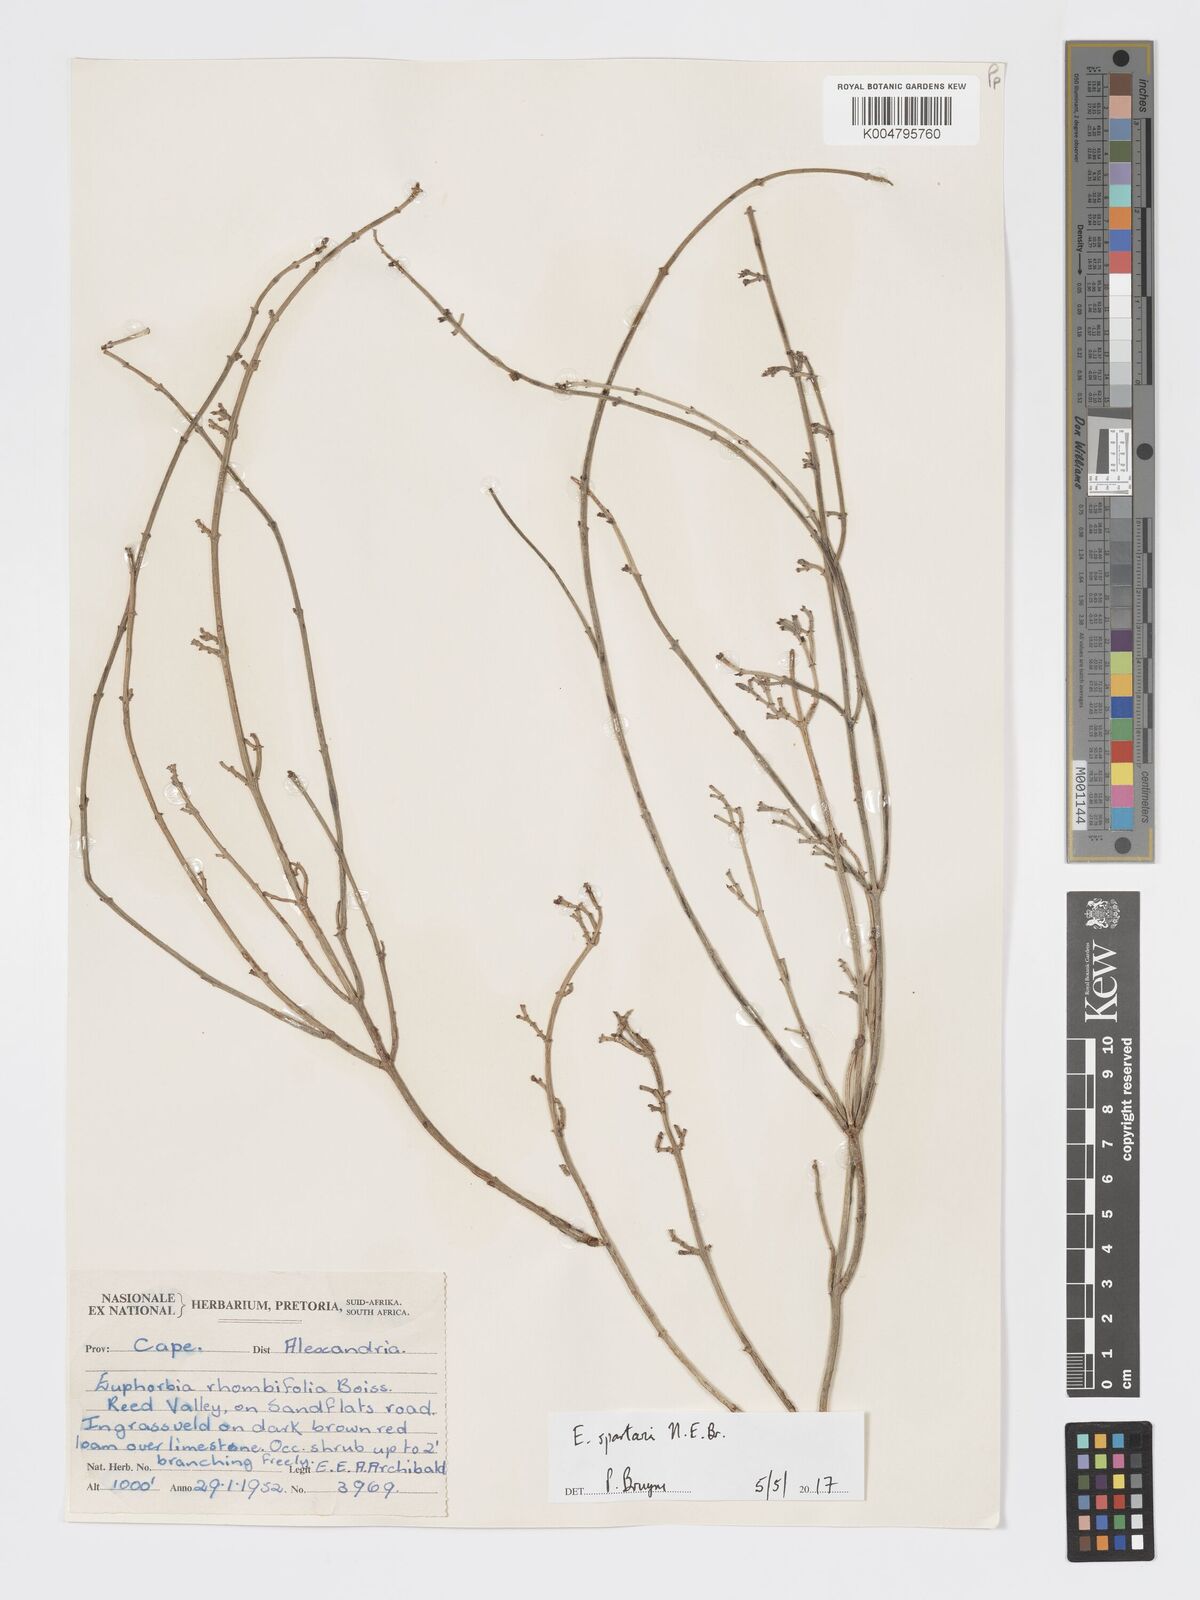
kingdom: Plantae
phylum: Tracheophyta
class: Magnoliopsida
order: Malpighiales
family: Euphorbiaceae
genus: Euphorbia
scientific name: Euphorbia spartaria
